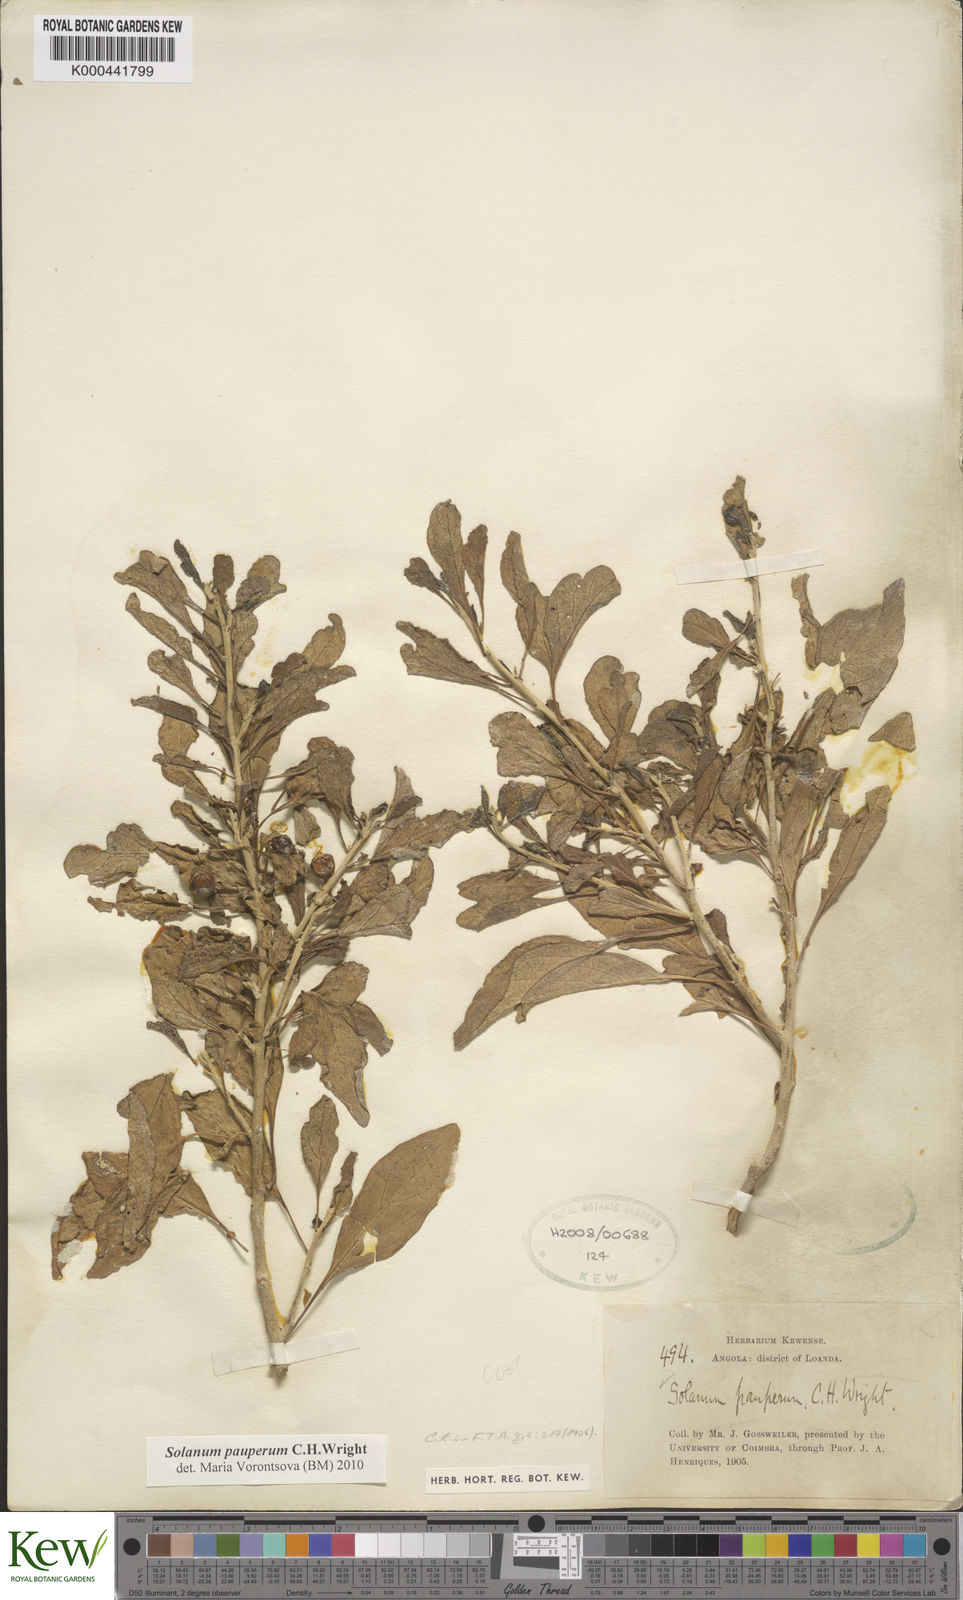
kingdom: Plantae
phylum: Tracheophyta
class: Magnoliopsida
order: Solanales
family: Solanaceae
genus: Solanum
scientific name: Solanum anomalum
